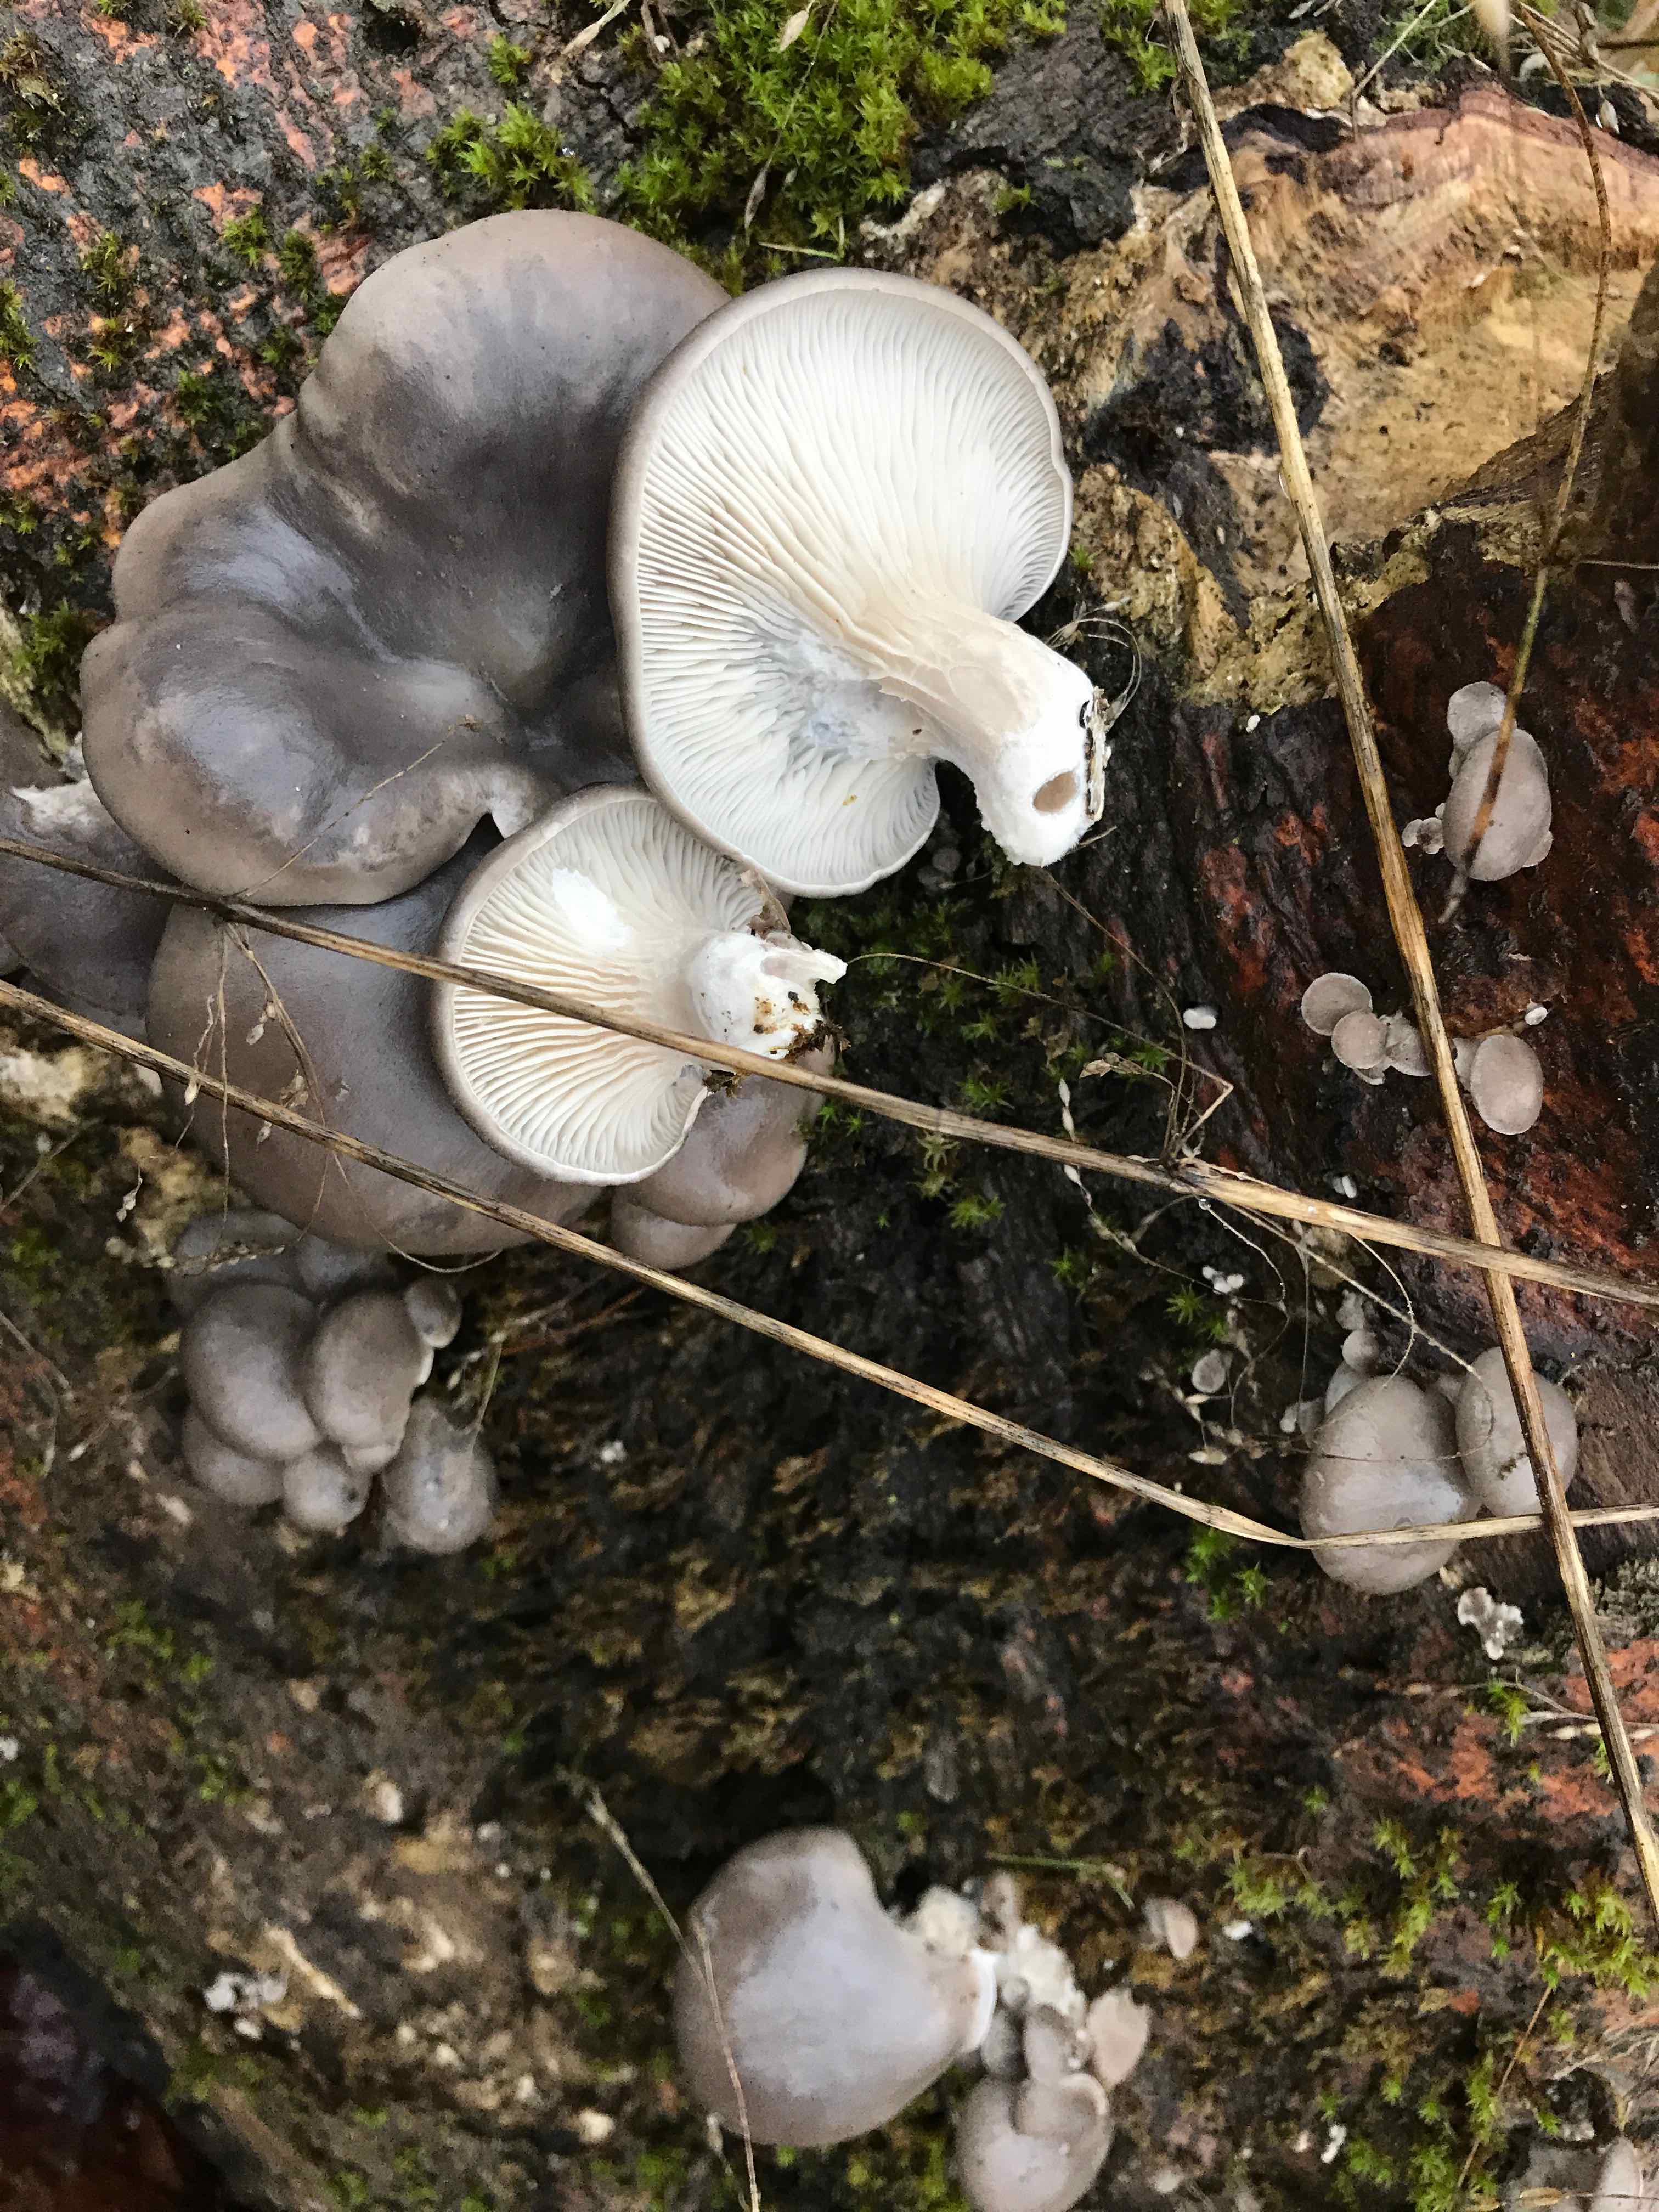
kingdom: Fungi
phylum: Basidiomycota
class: Agaricomycetes
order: Agaricales
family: Pleurotaceae
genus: Pleurotus
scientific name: Pleurotus ostreatus
